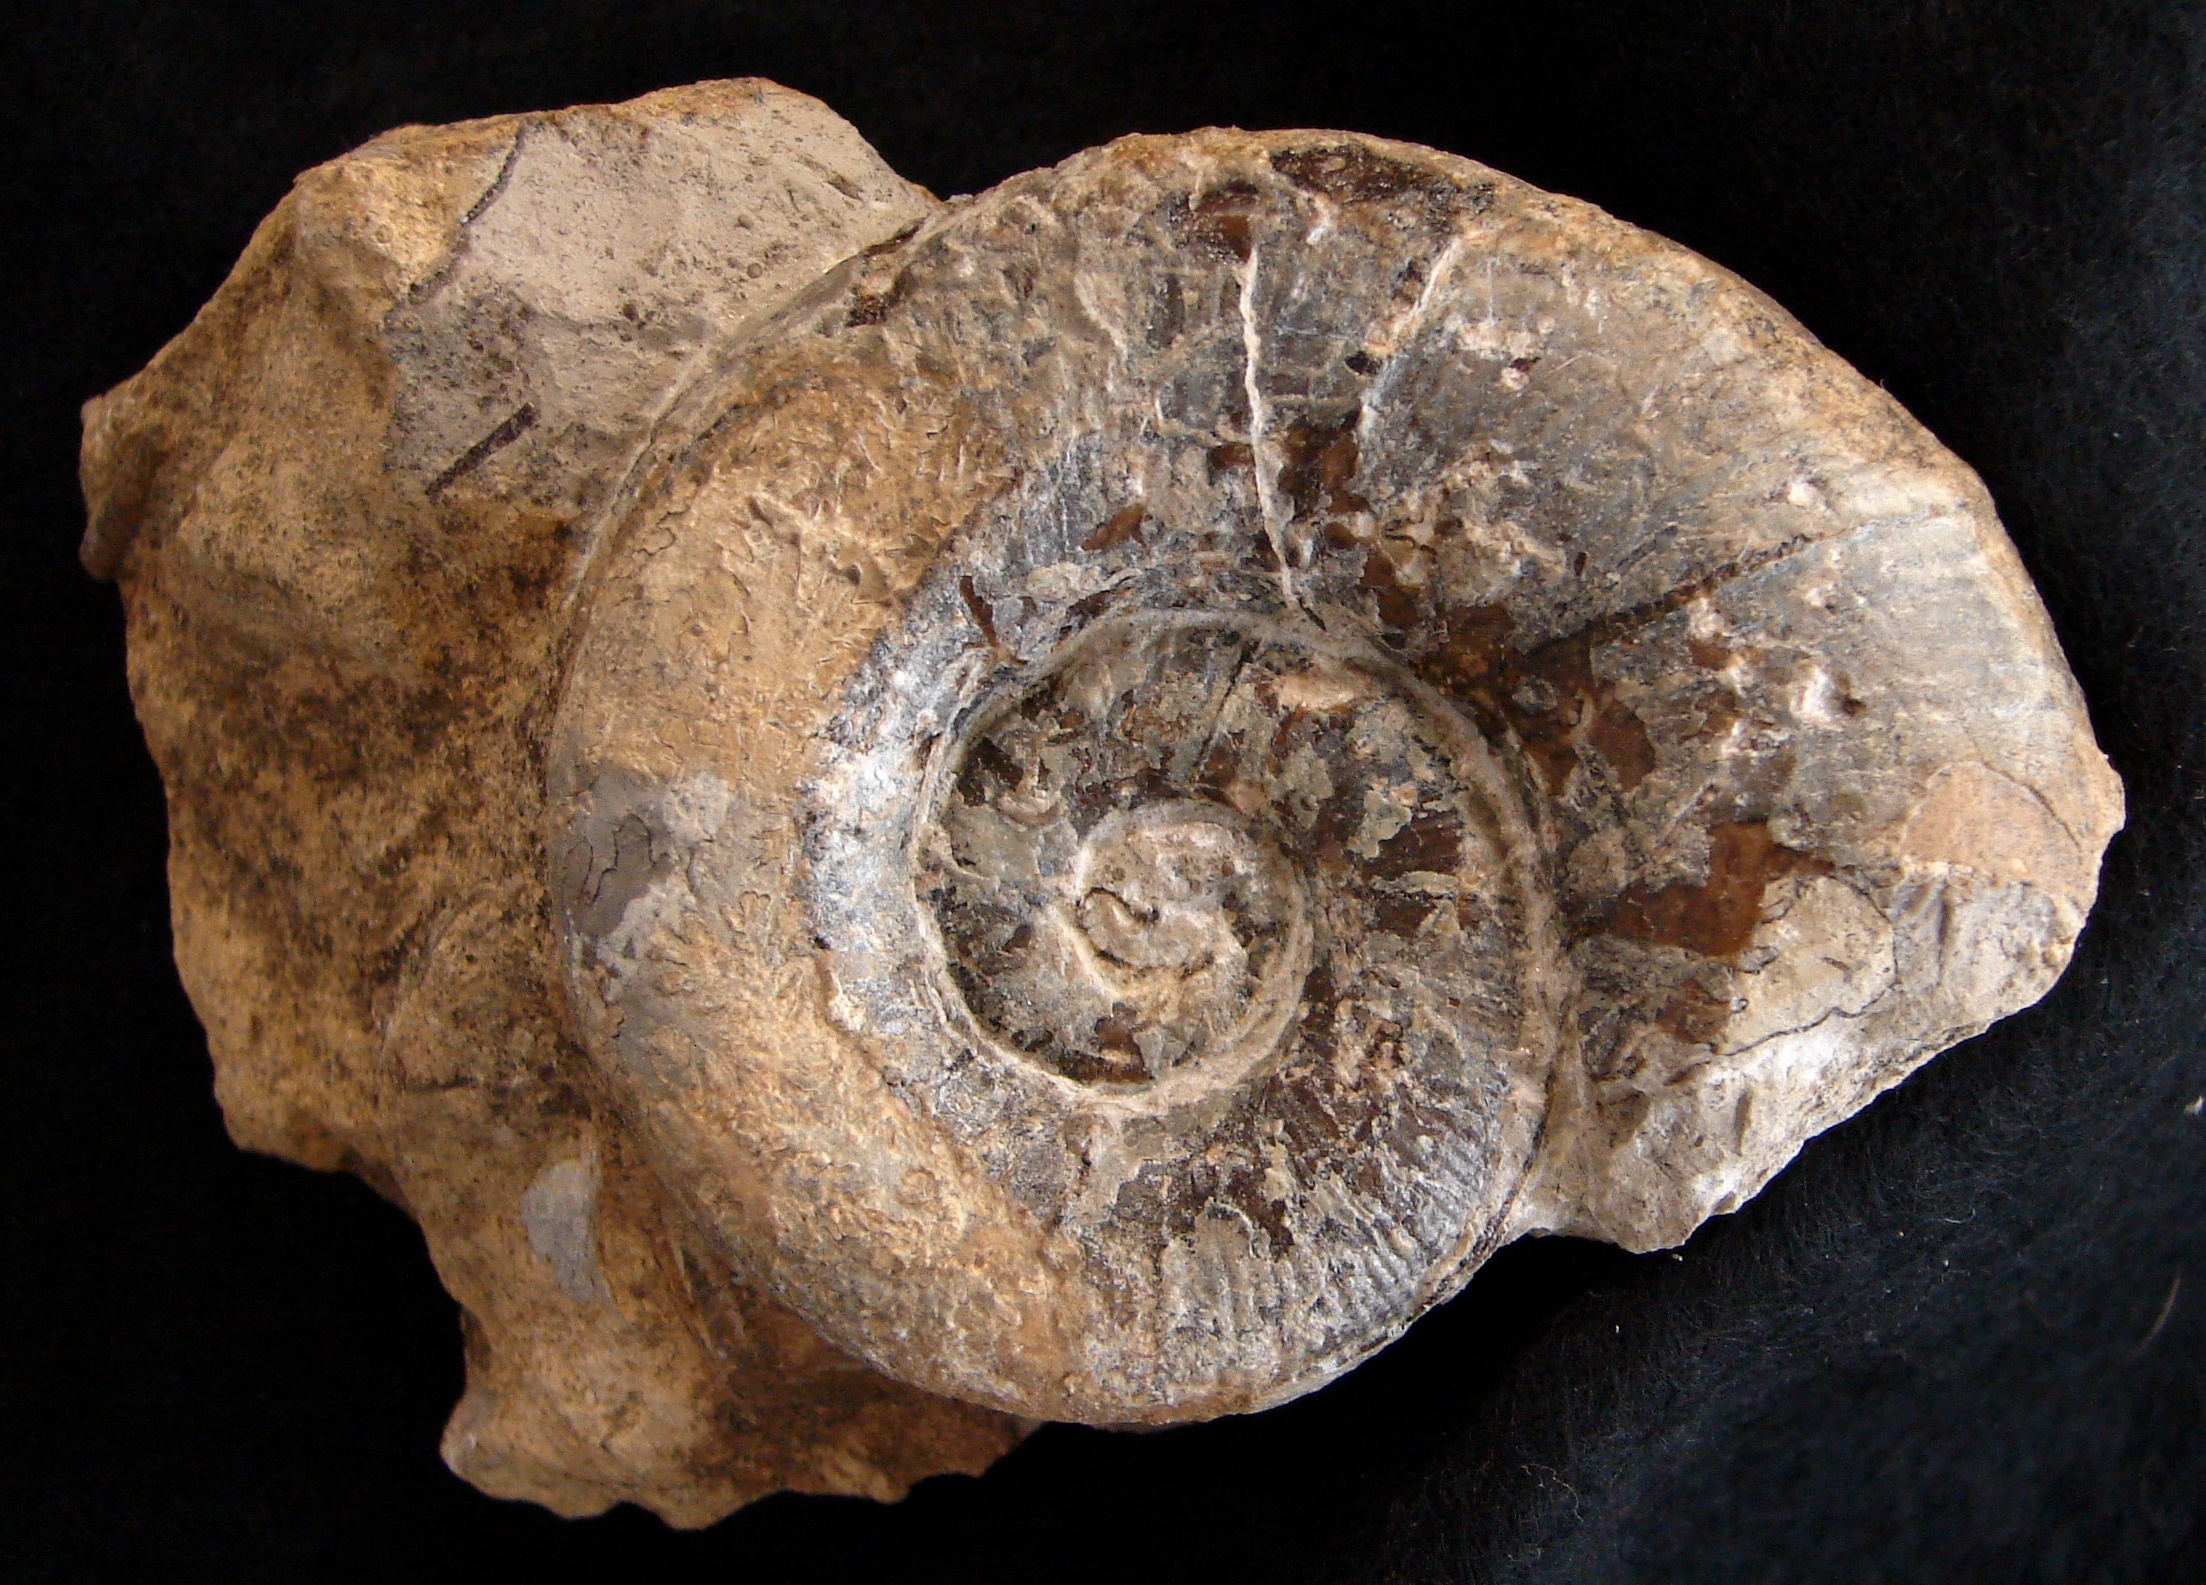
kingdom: Animalia
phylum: Mollusca
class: Cephalopoda
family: Lytoceratidae
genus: Lytoceras
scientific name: Lytoceras
